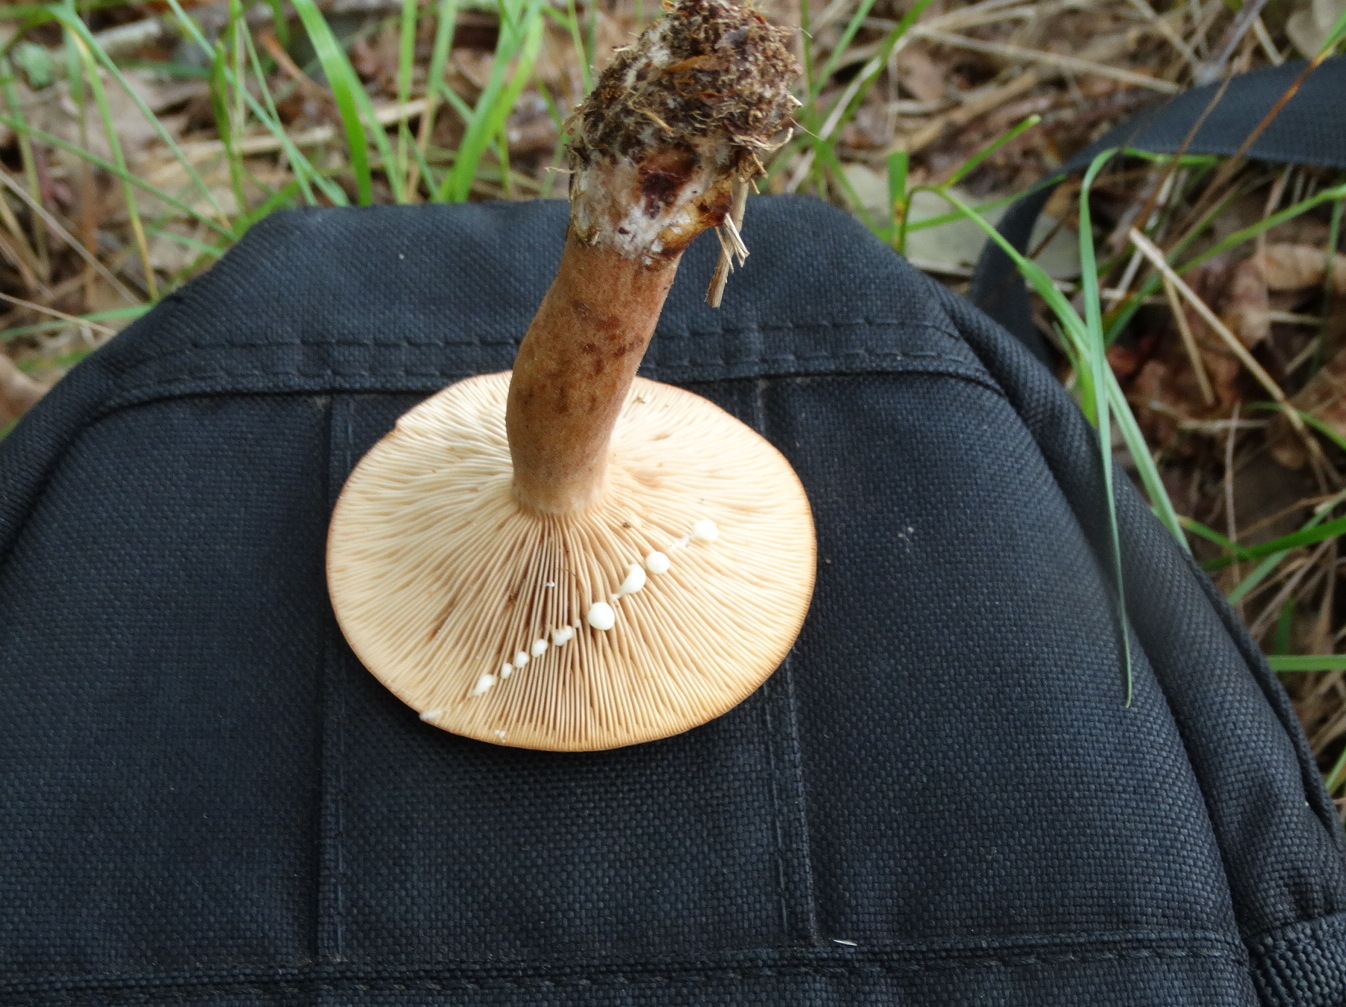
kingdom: Fungi
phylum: Basidiomycota
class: Agaricomycetes
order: Russulales
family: Russulaceae
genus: Lactarius
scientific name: Lactarius quietus
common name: ege-mælkehat
